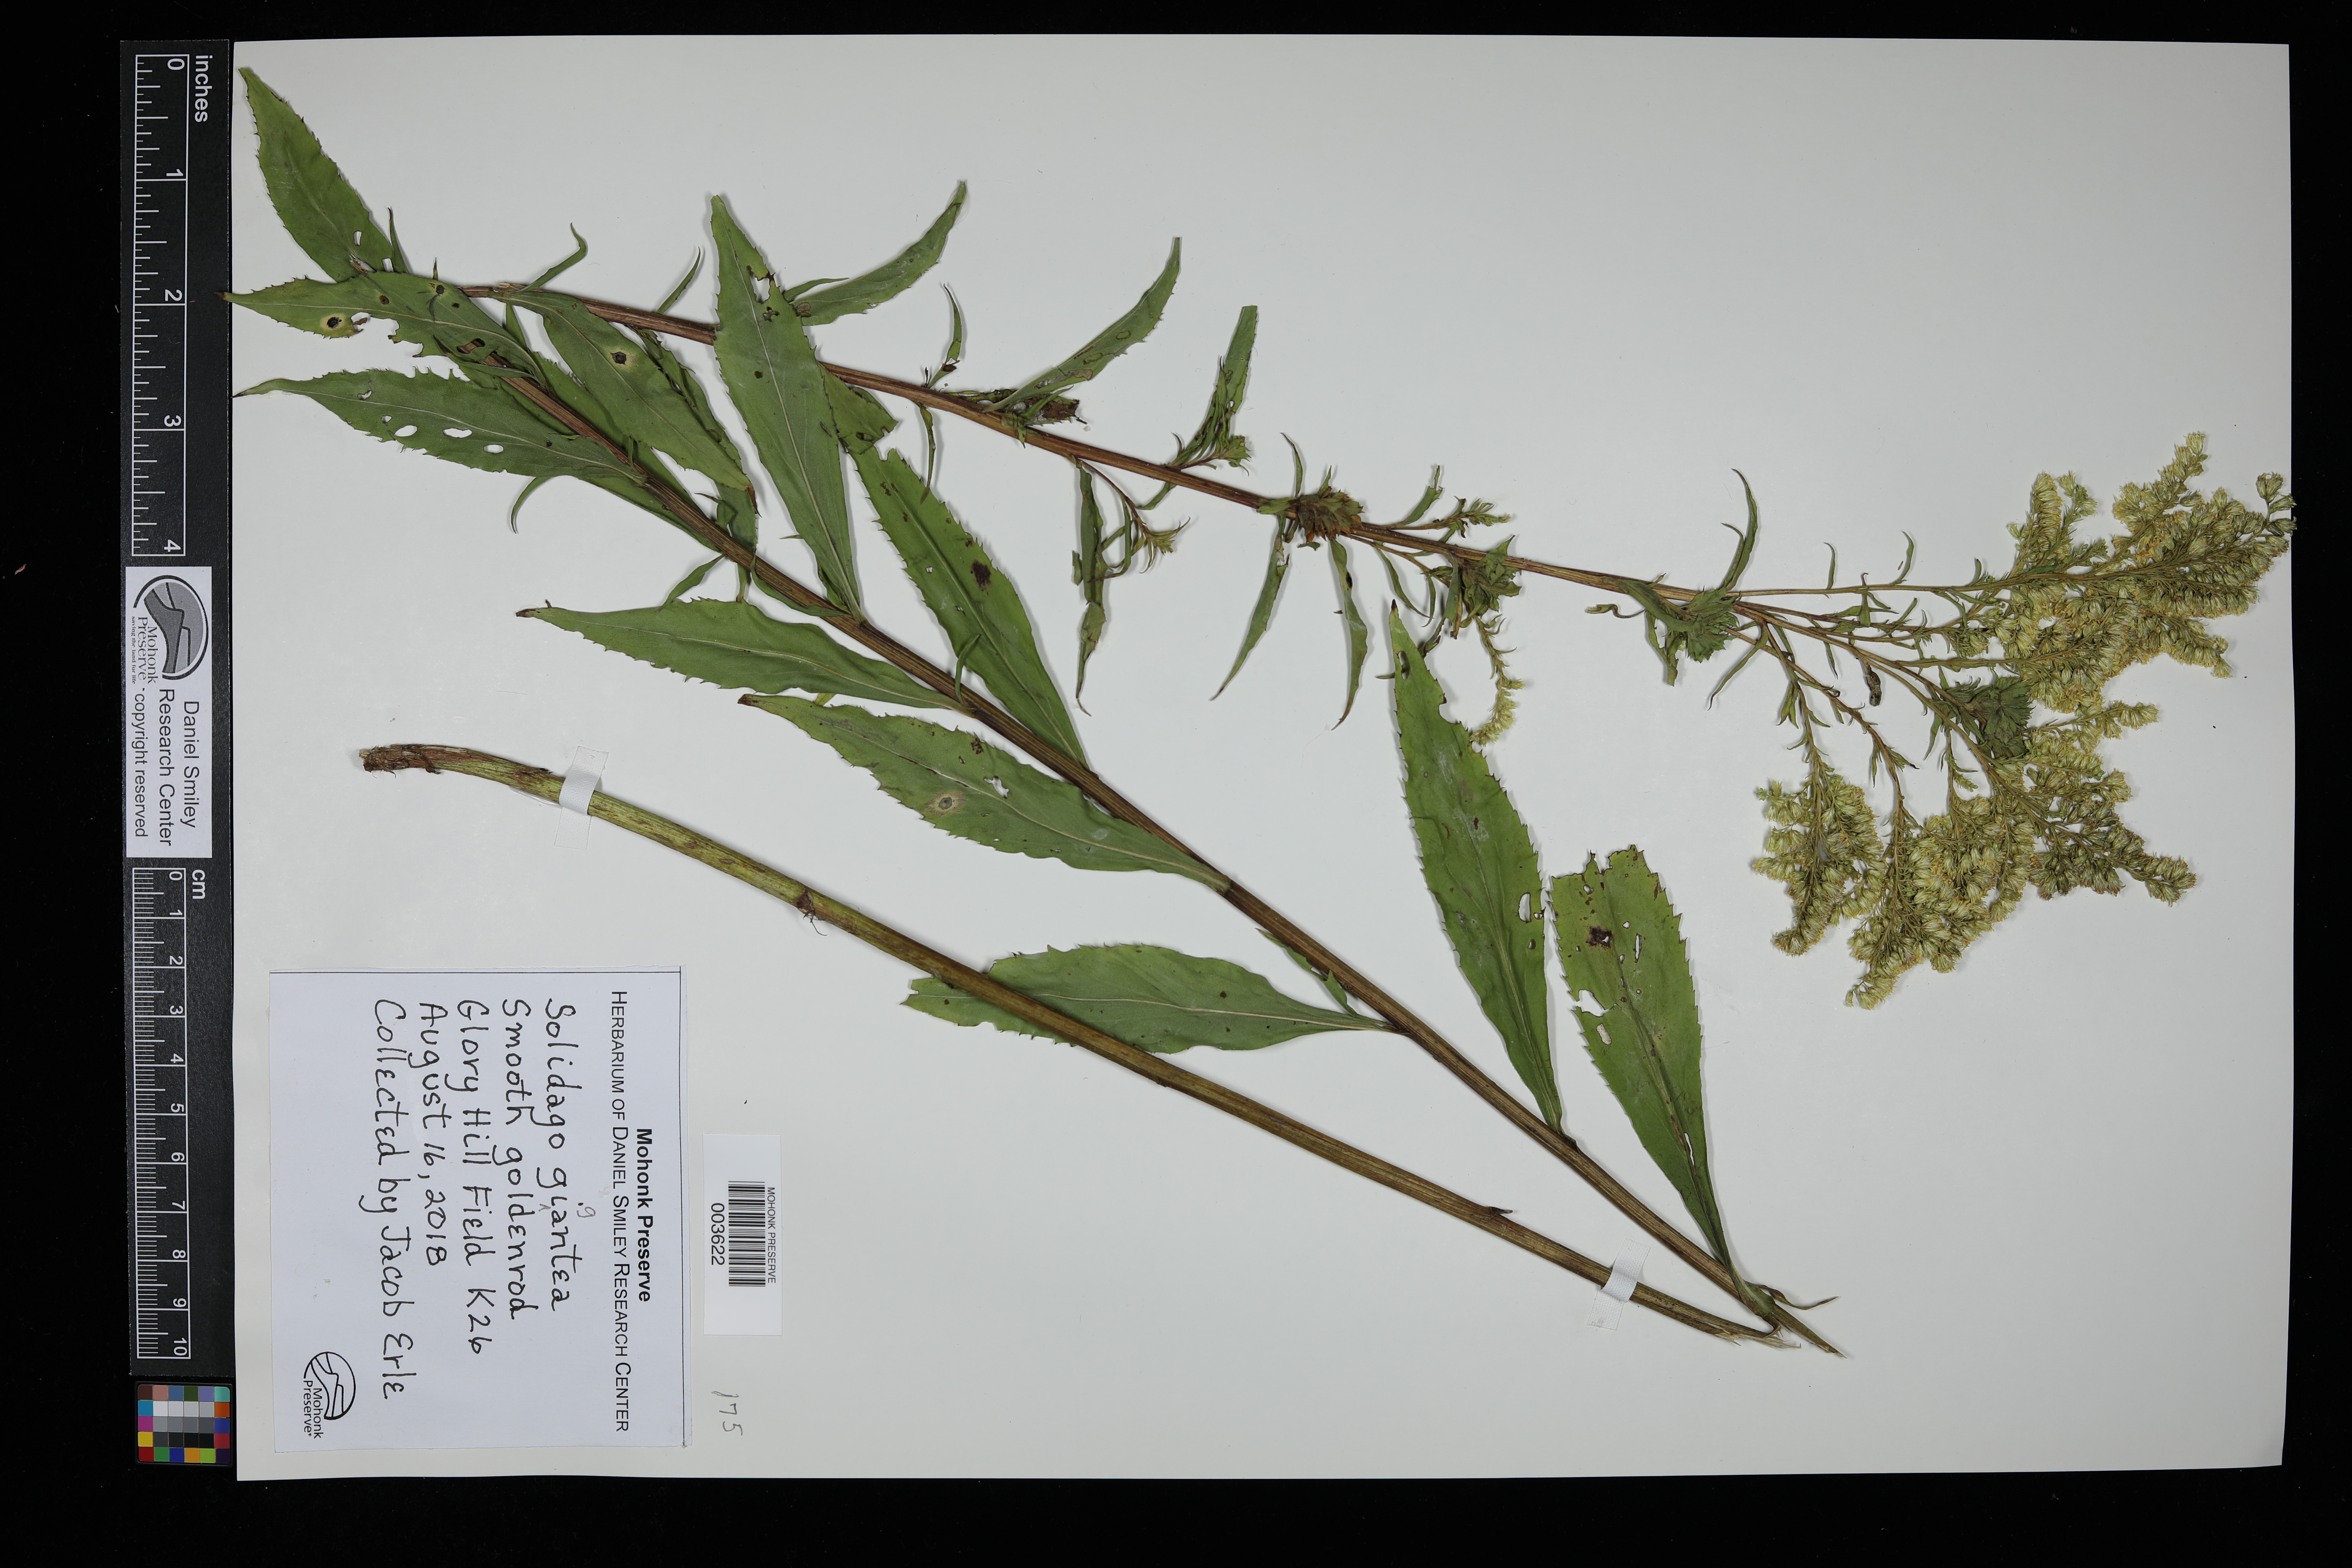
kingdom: Plantae
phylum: Tracheophyta
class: Magnoliopsida
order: Asterales
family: Asteraceae
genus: Solidago
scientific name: Solidago gigantea
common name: Giant goldenrod
